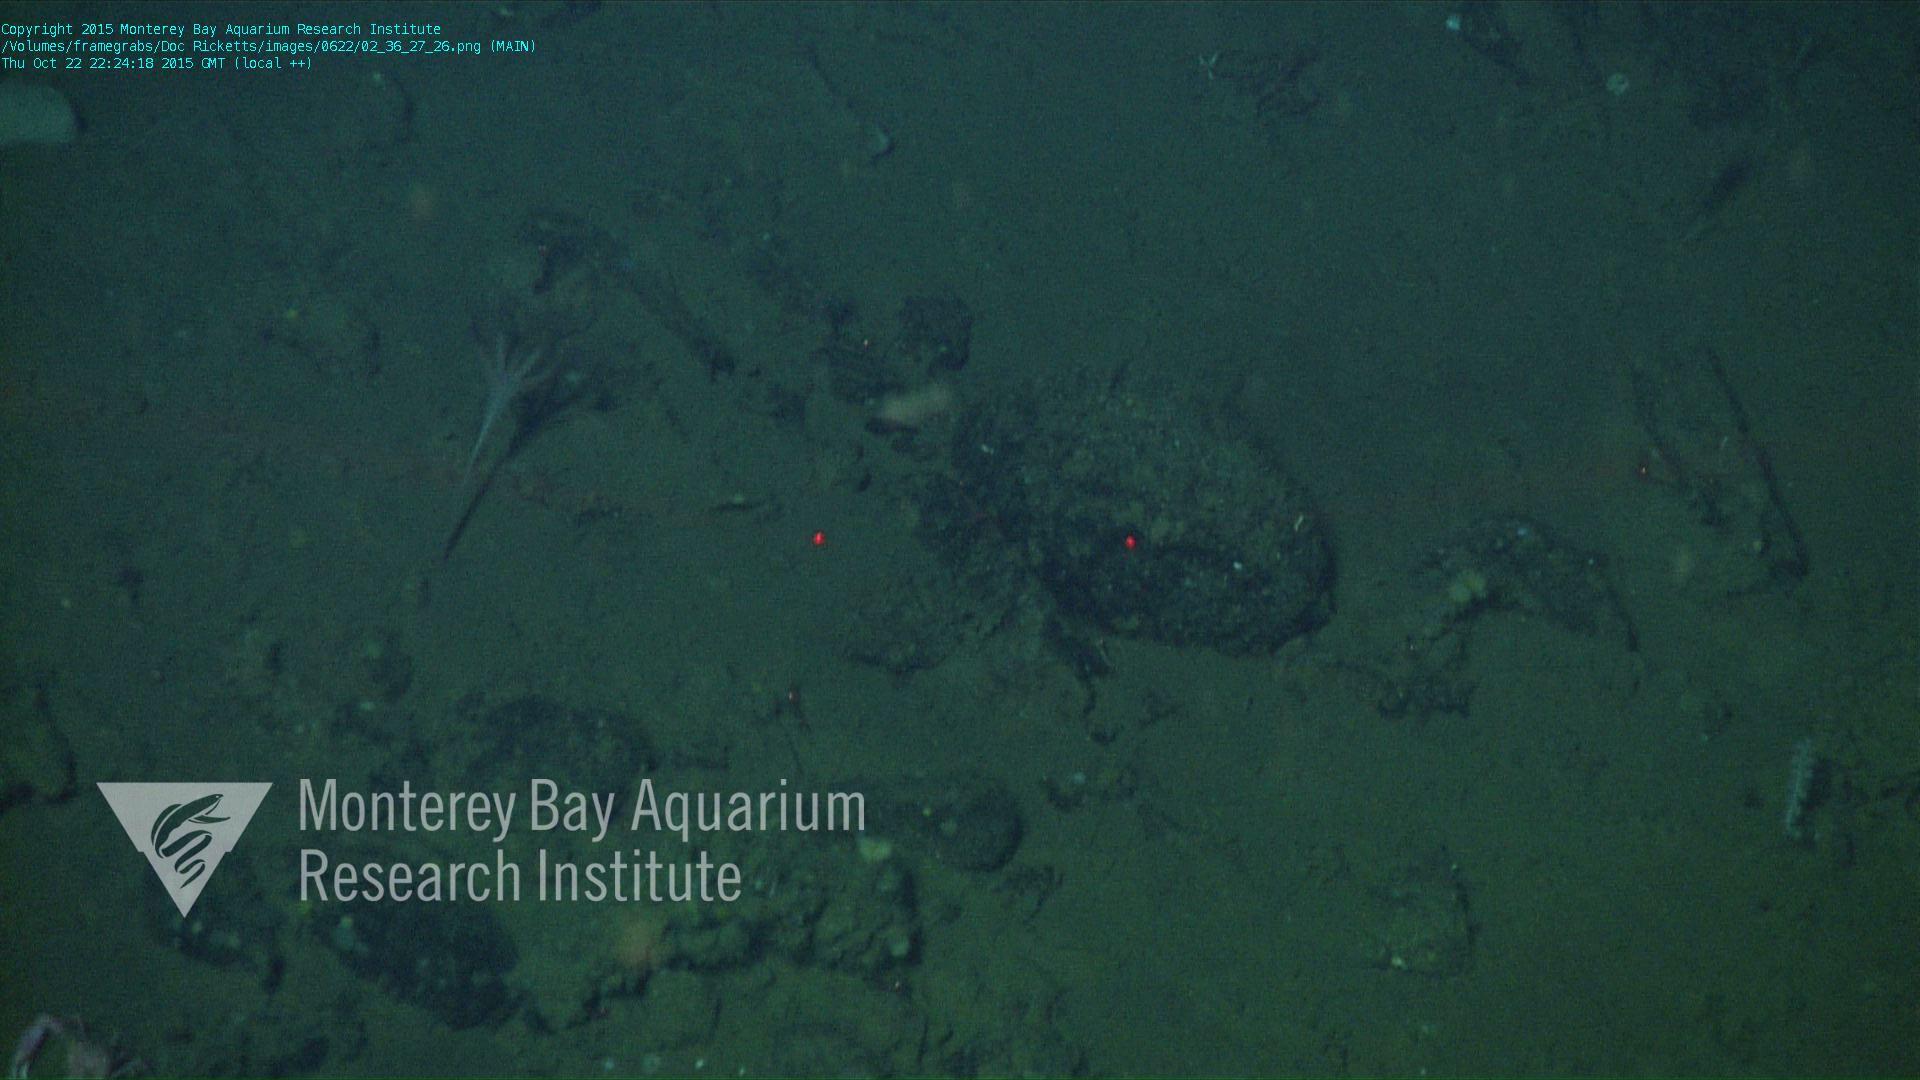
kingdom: Animalia
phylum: Cnidaria
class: Anthozoa
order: Scleralcyonacea
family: Umbellulidae
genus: Umbellula
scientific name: Umbellula lindahli
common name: Lindahl's droopy sea pen
